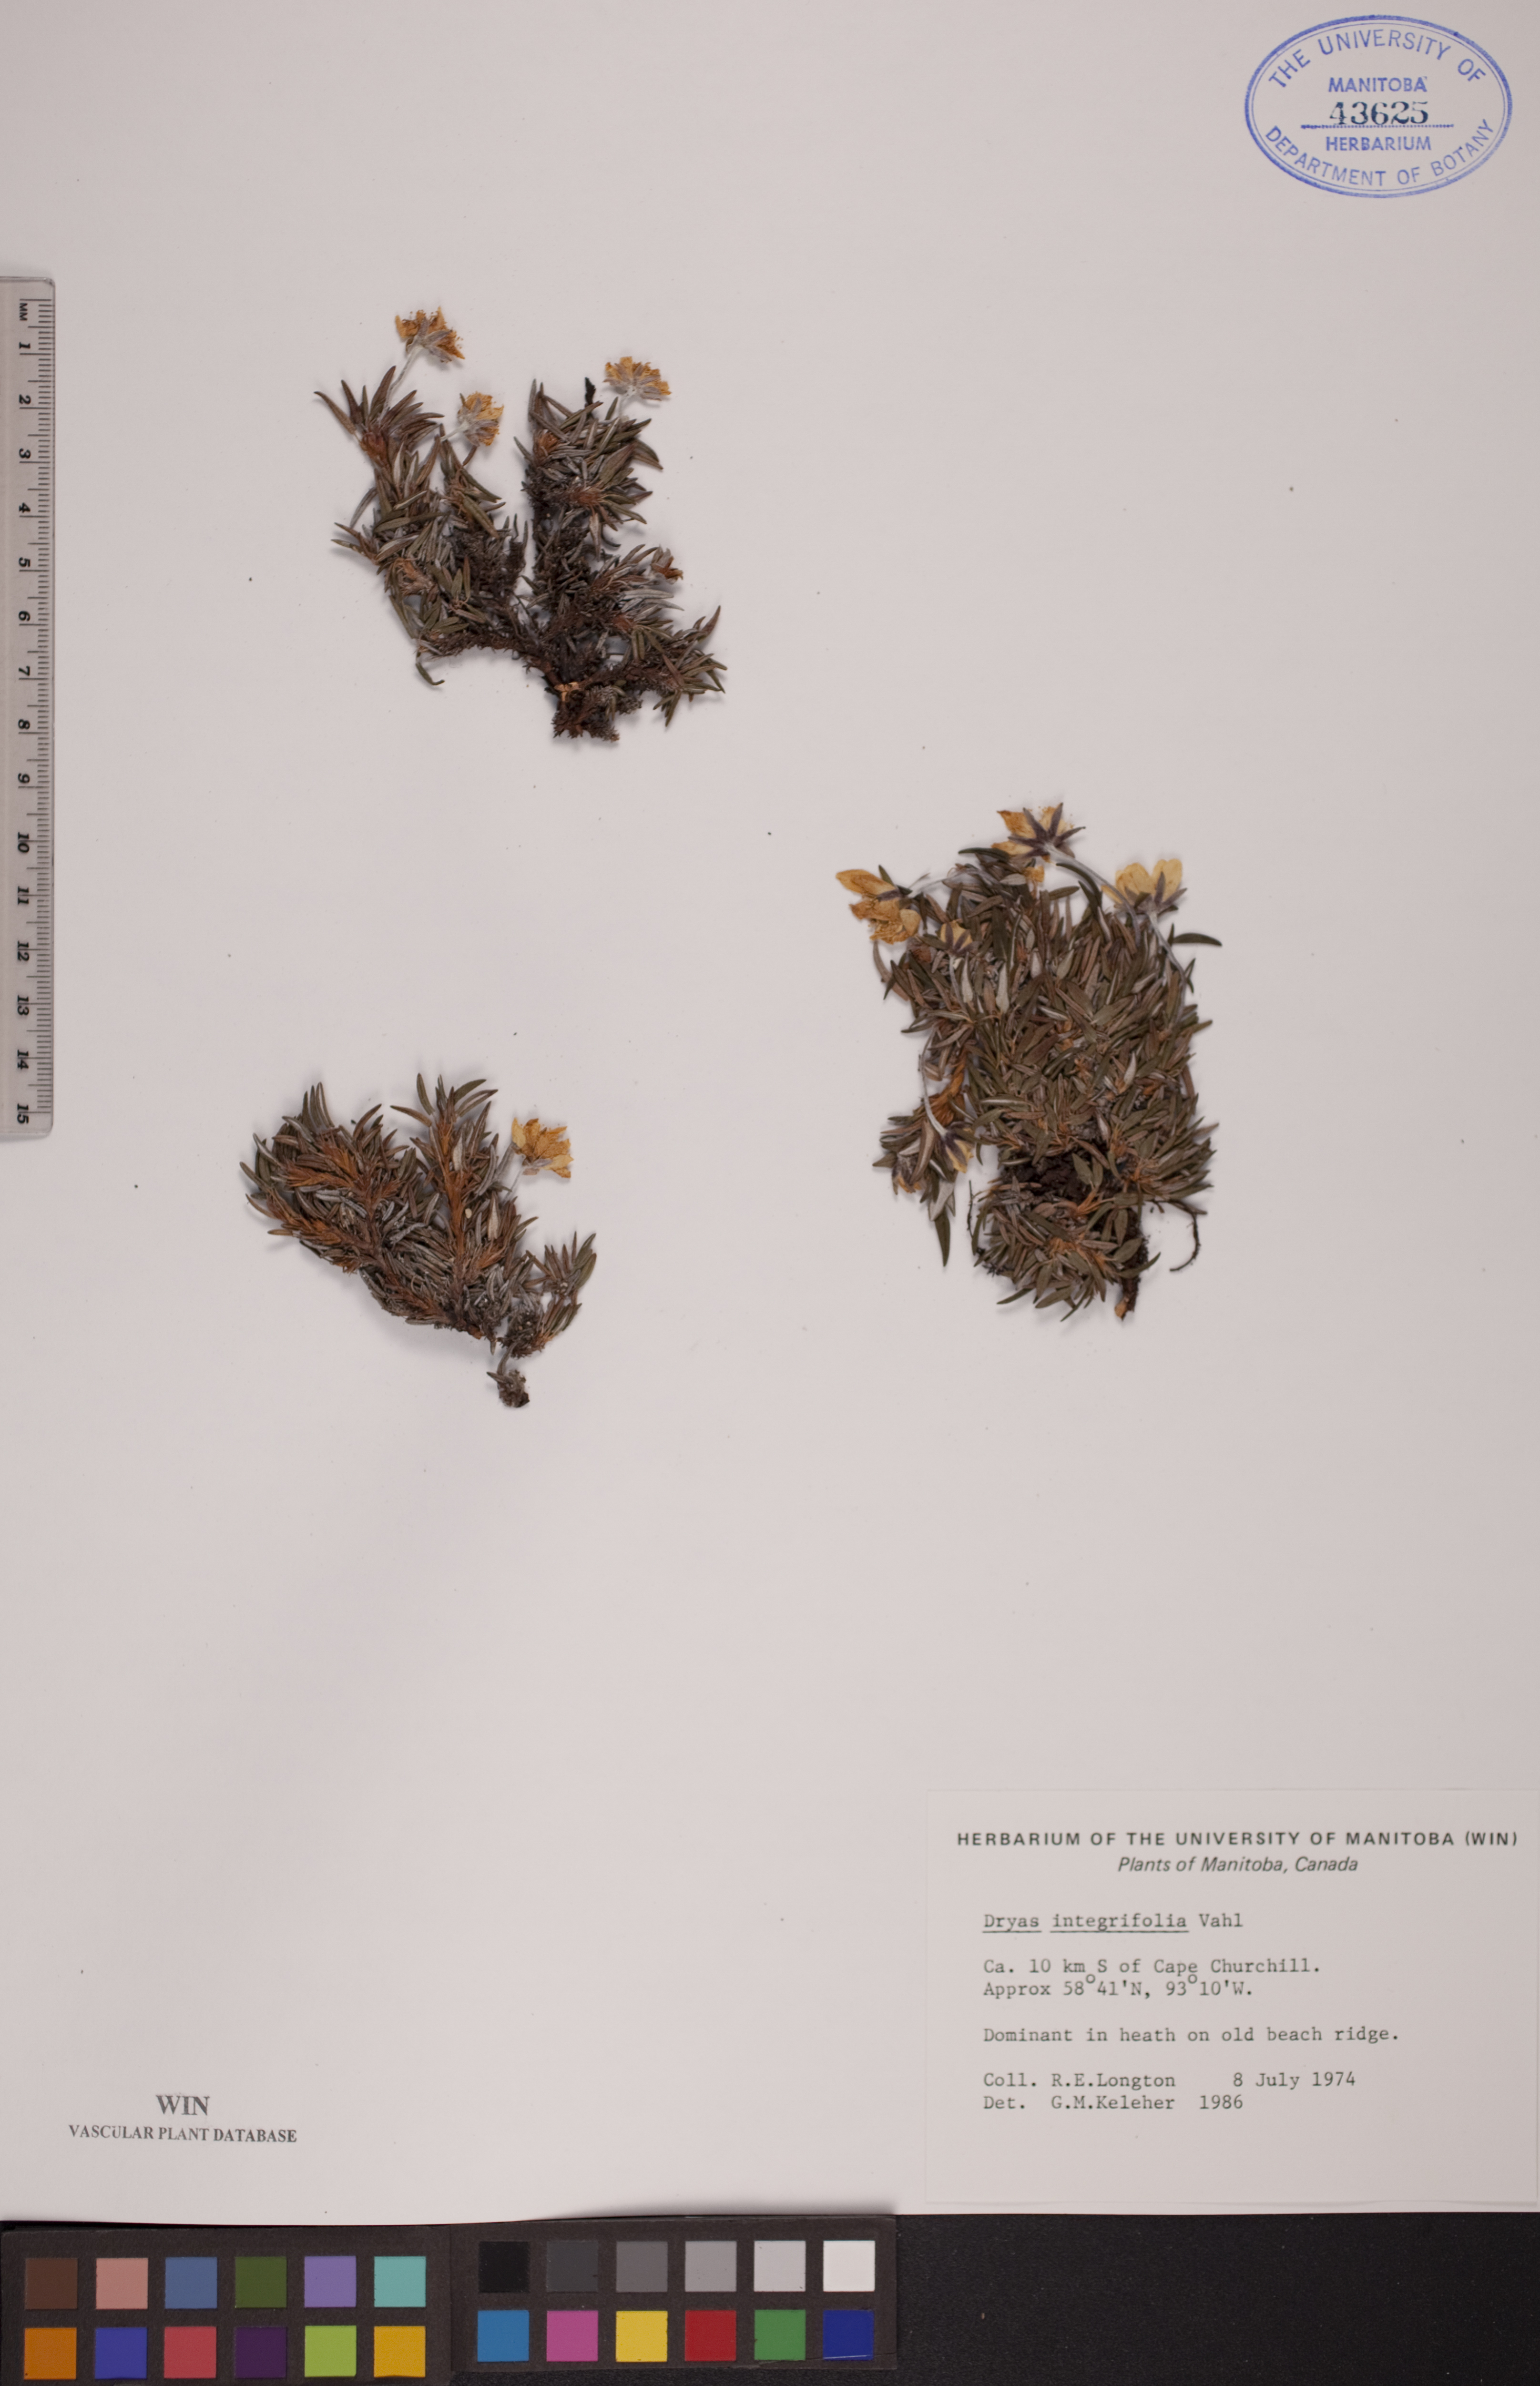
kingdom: Plantae
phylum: Tracheophyta
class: Magnoliopsida
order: Rosales
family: Rosaceae
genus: Dryas
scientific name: Dryas integrifolia
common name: Entire-leaved mountain avens
